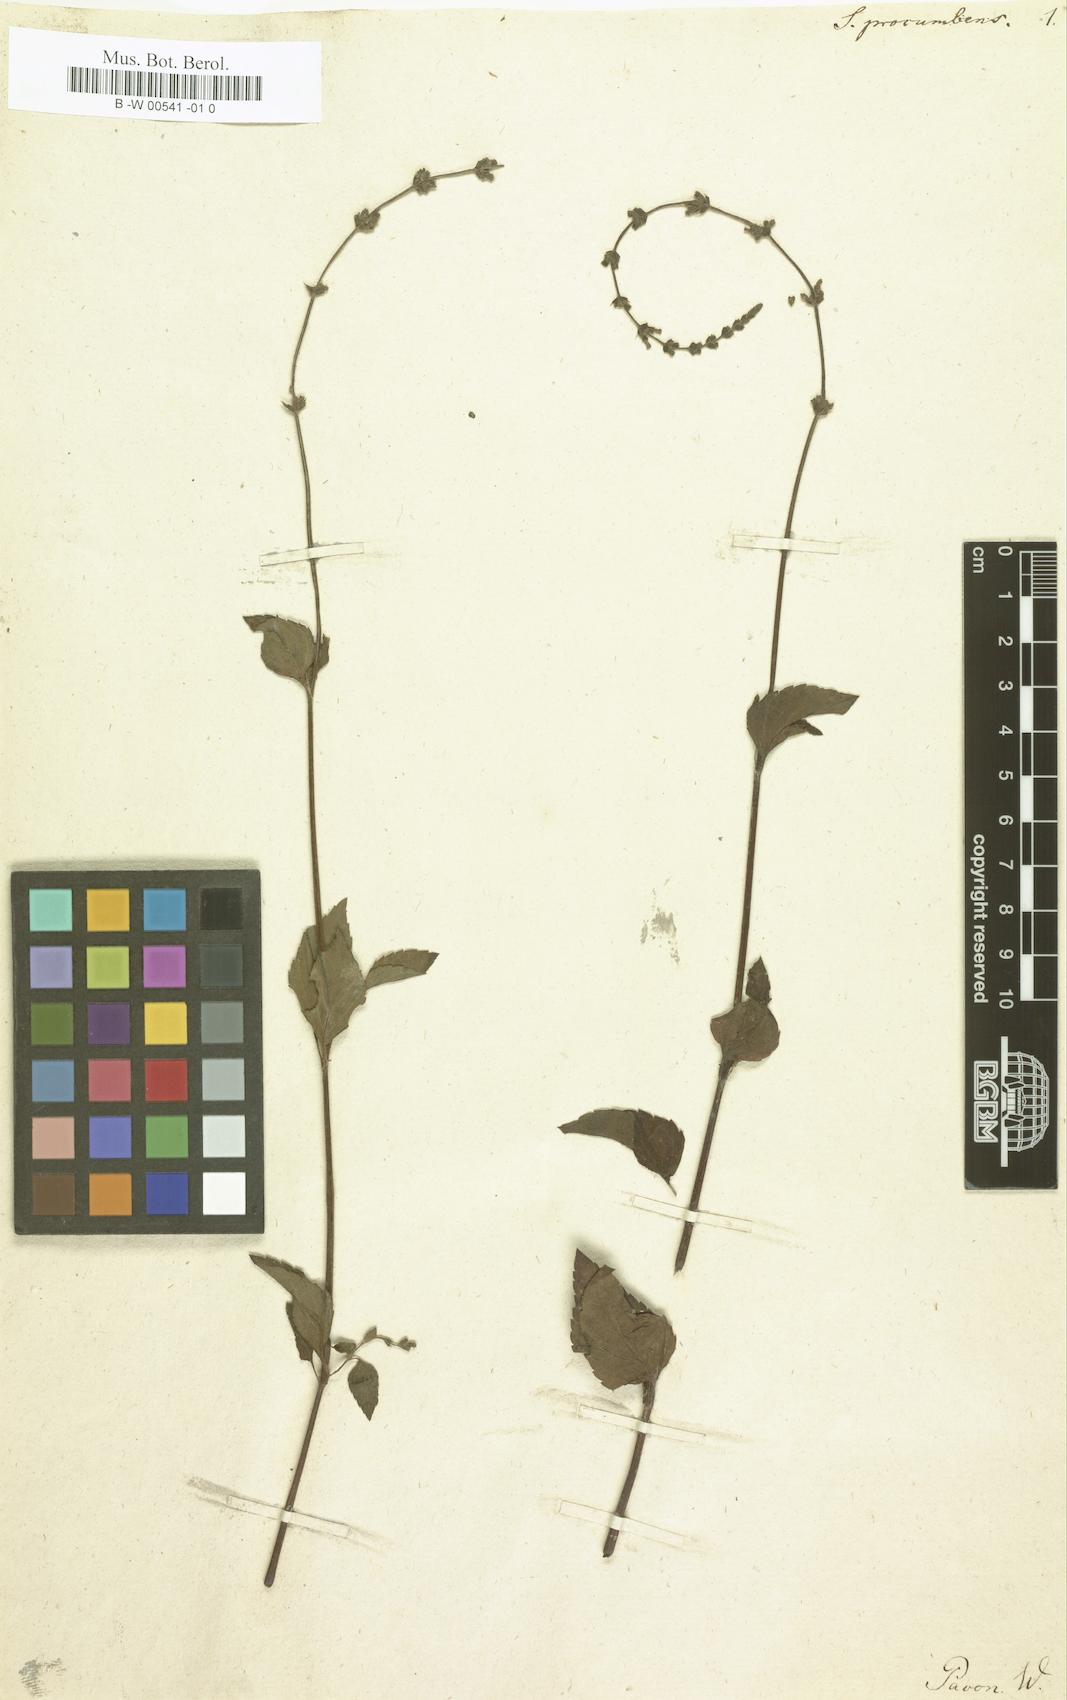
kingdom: Plantae
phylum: Tracheophyta
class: Magnoliopsida
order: Lamiales
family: Lamiaceae
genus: Salvia
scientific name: Salvia occidentalis
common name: West indian sage
